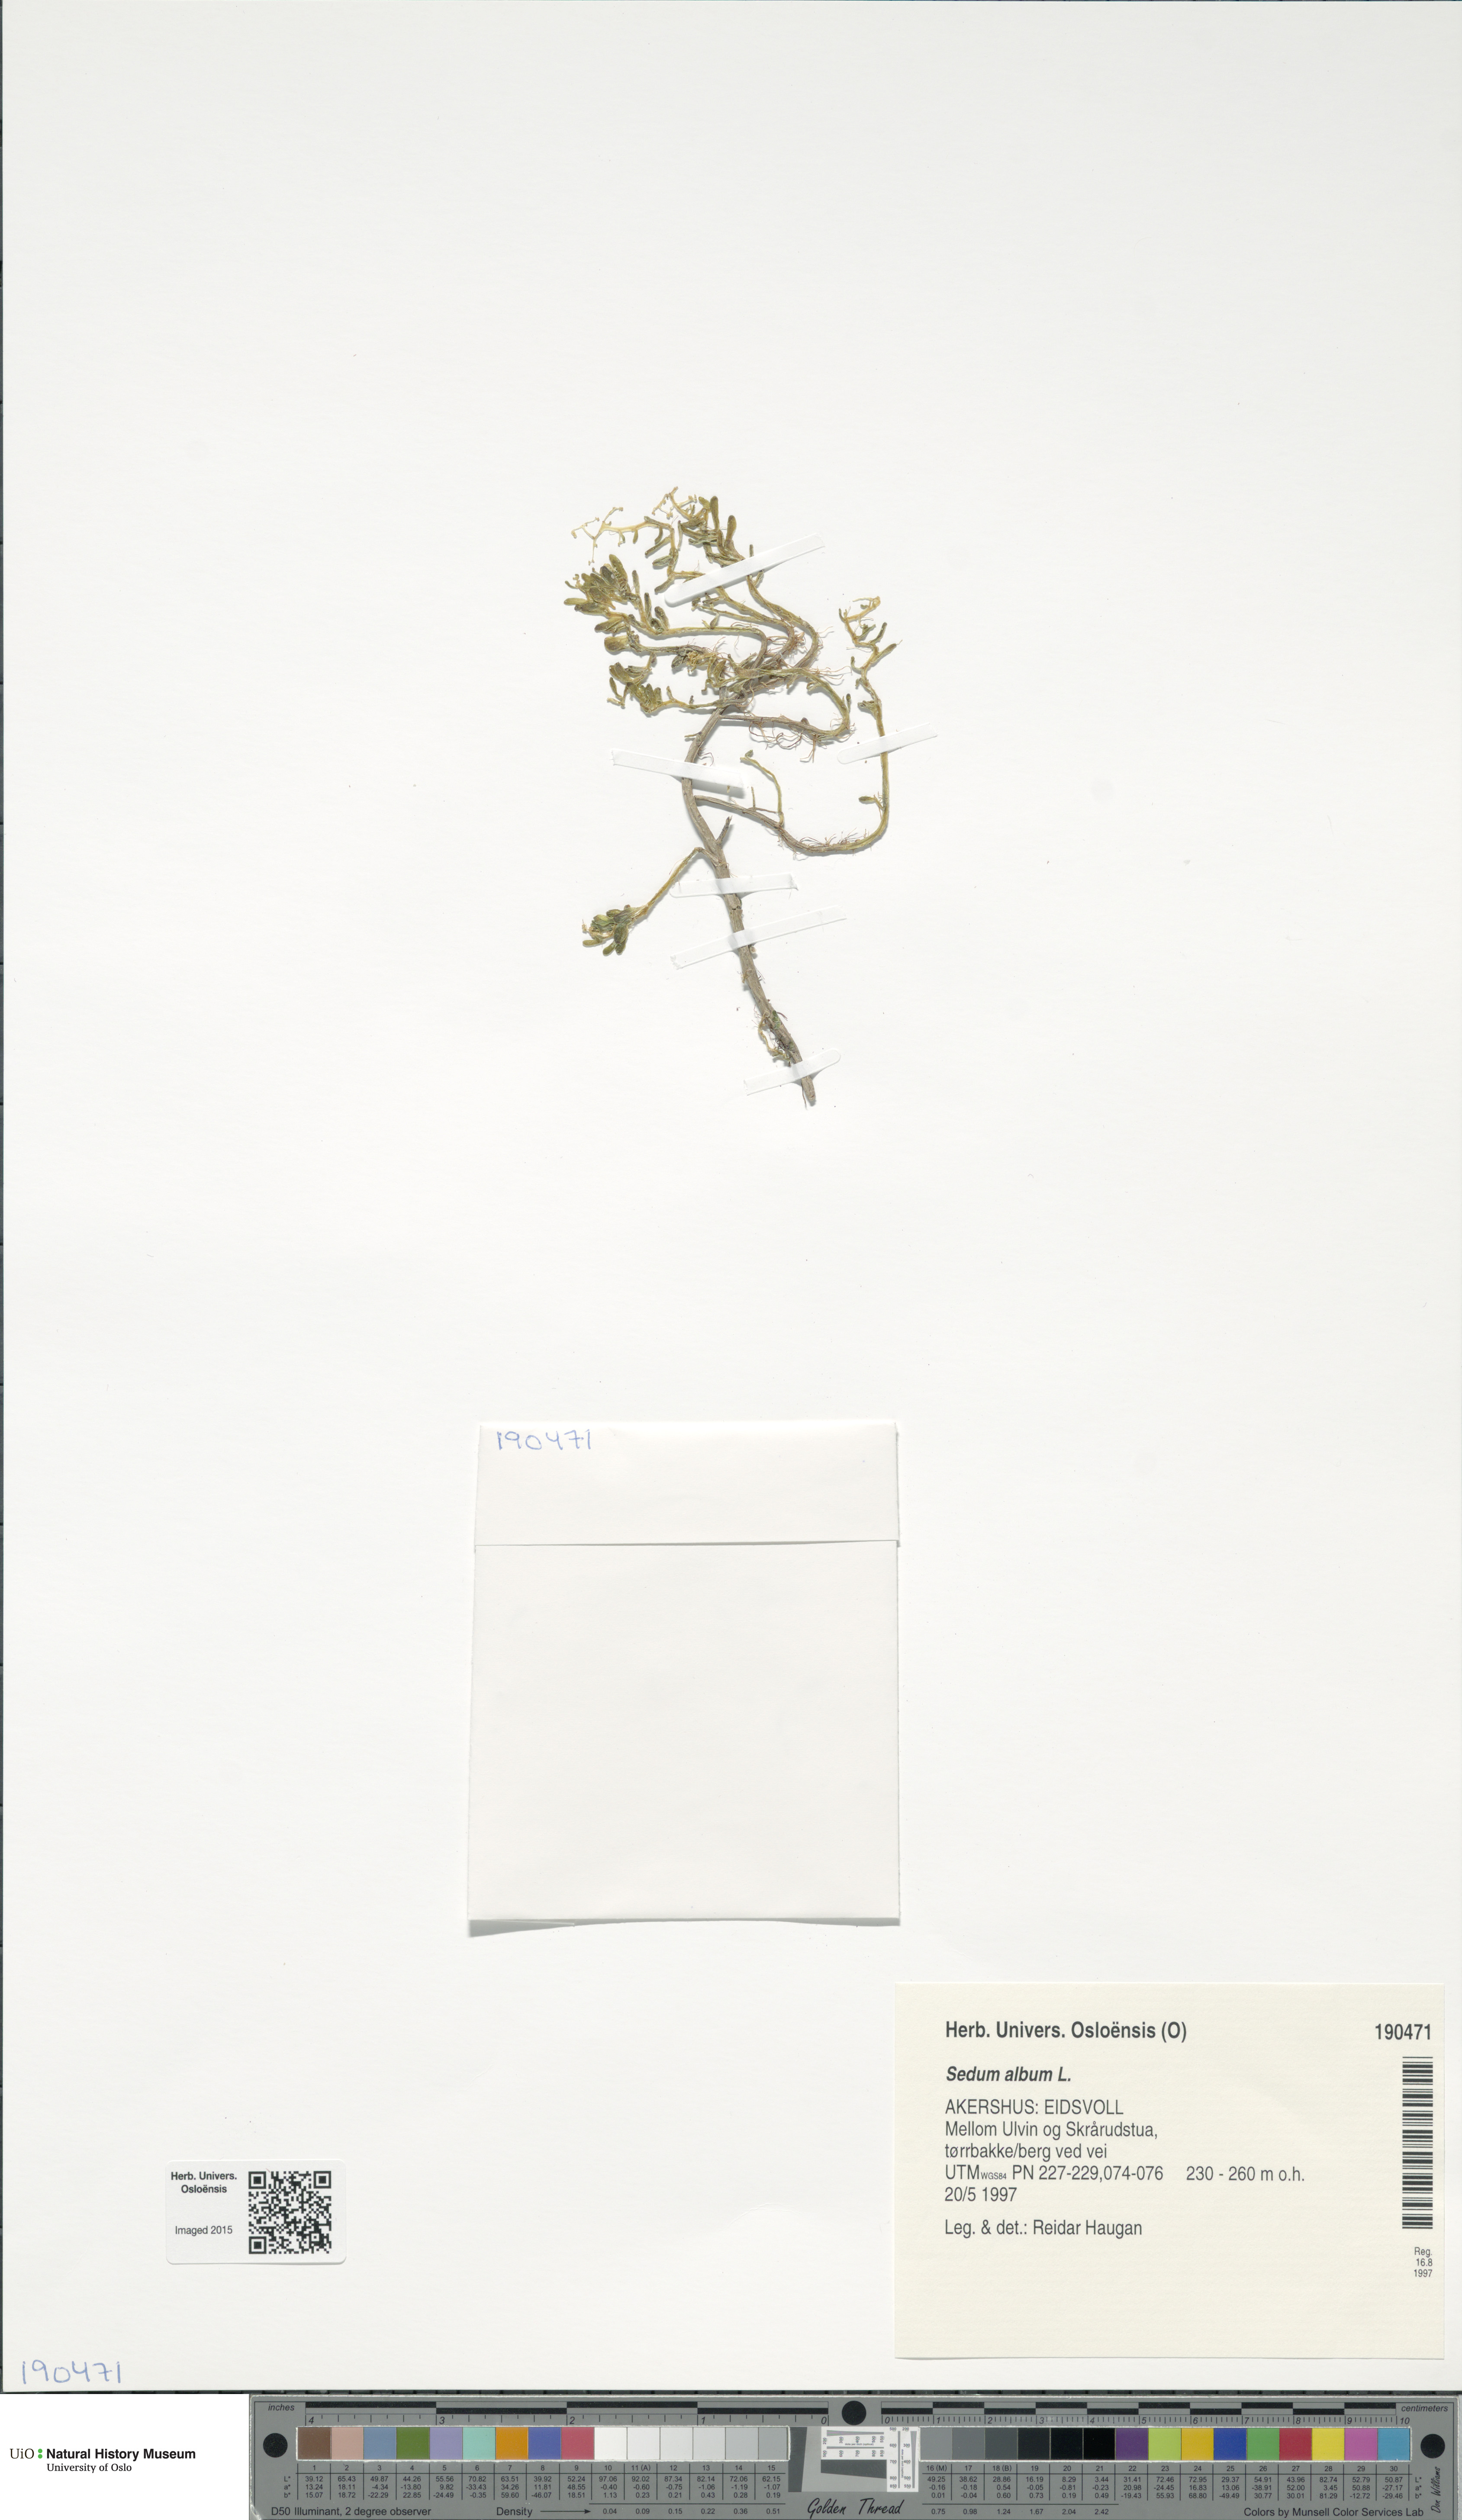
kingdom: Plantae
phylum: Tracheophyta
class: Magnoliopsida
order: Saxifragales
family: Crassulaceae
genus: Sedum
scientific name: Sedum album
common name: White stonecrop
